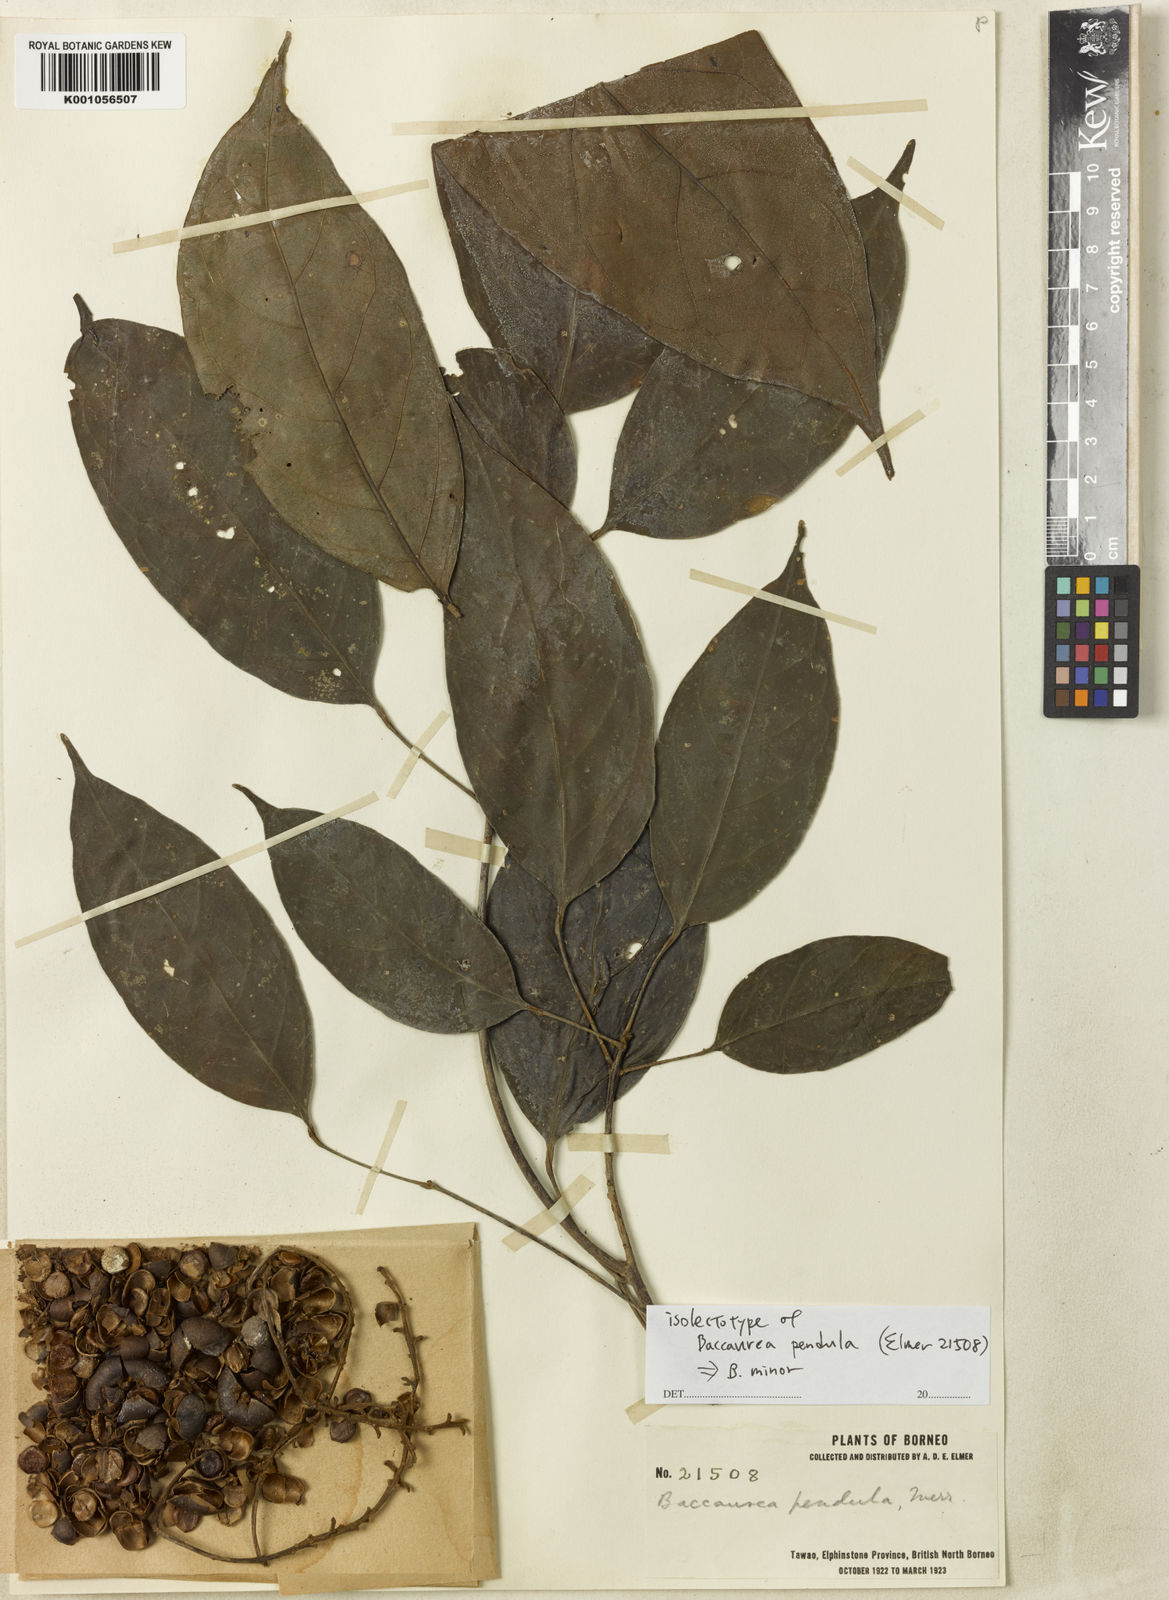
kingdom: Plantae
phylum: Tracheophyta
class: Magnoliopsida
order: Malpighiales
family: Phyllanthaceae
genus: Baccaurea
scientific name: Baccaurea minor
